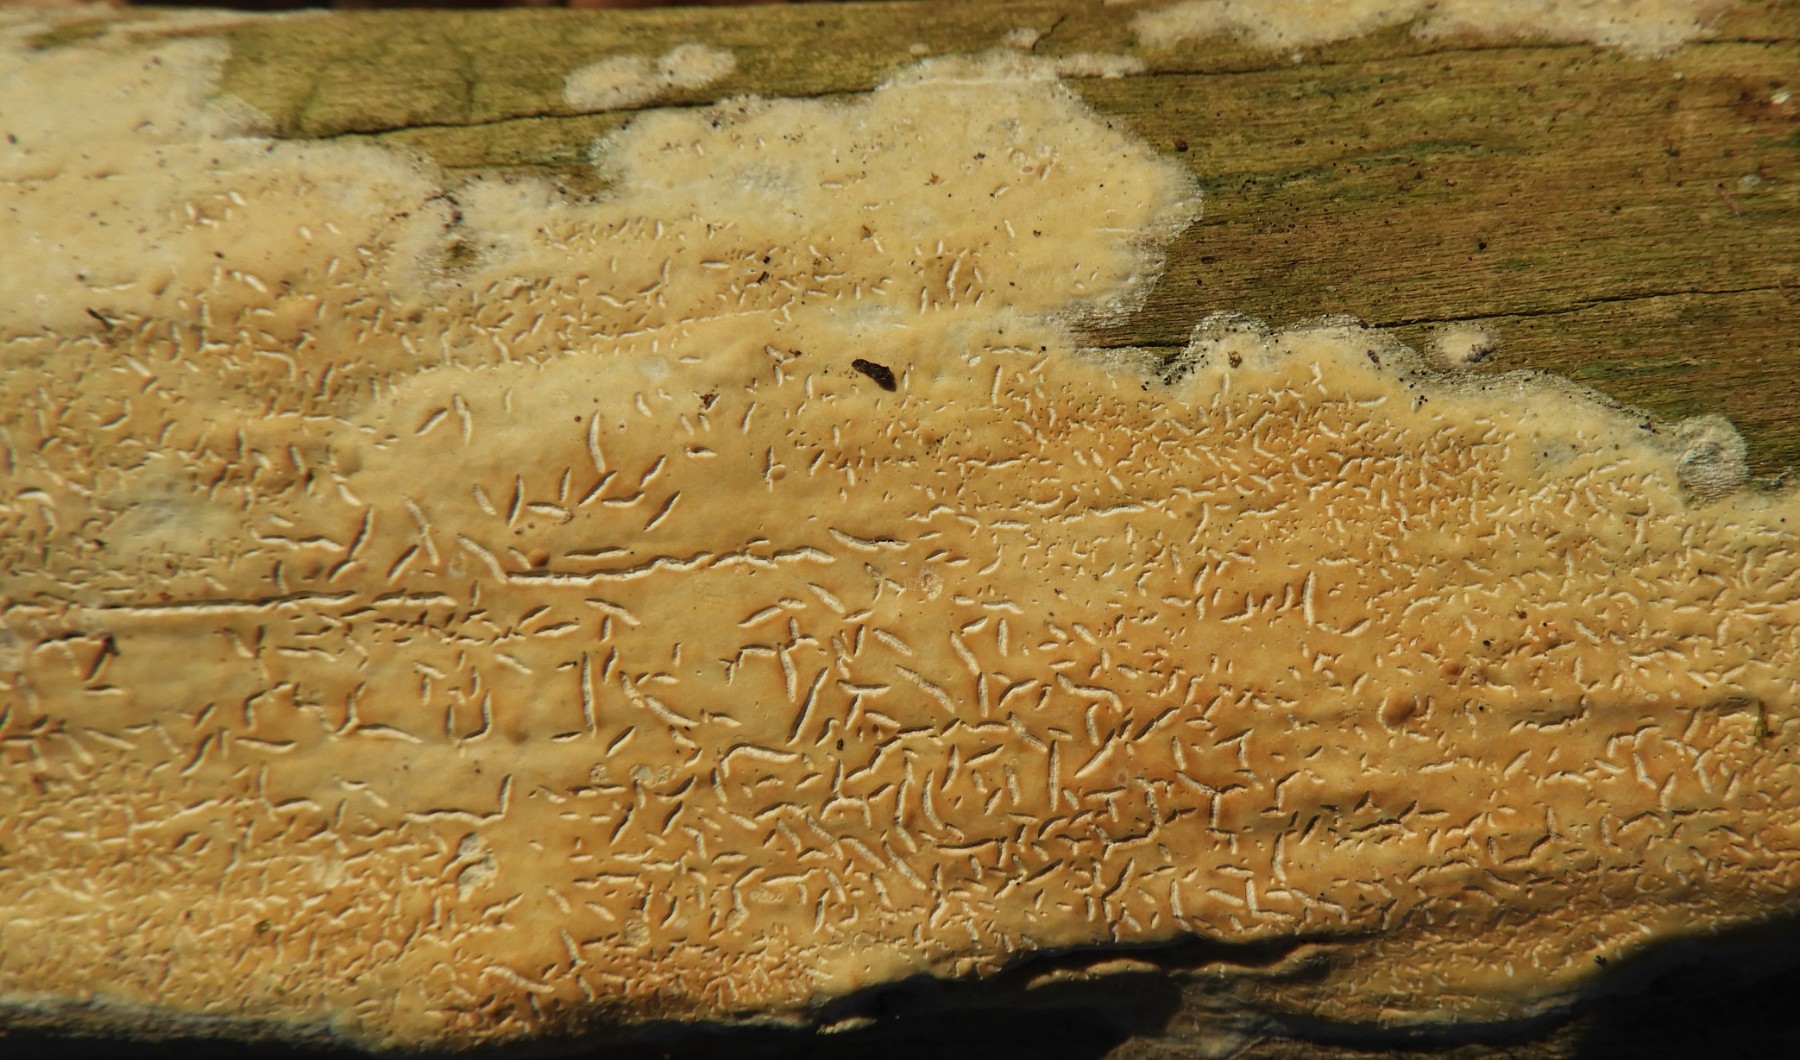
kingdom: Fungi
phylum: Basidiomycota
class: Agaricomycetes
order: Agaricales
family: Physalacriaceae
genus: Cylindrobasidium
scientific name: Cylindrobasidium evolvens
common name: sprækkehinde
